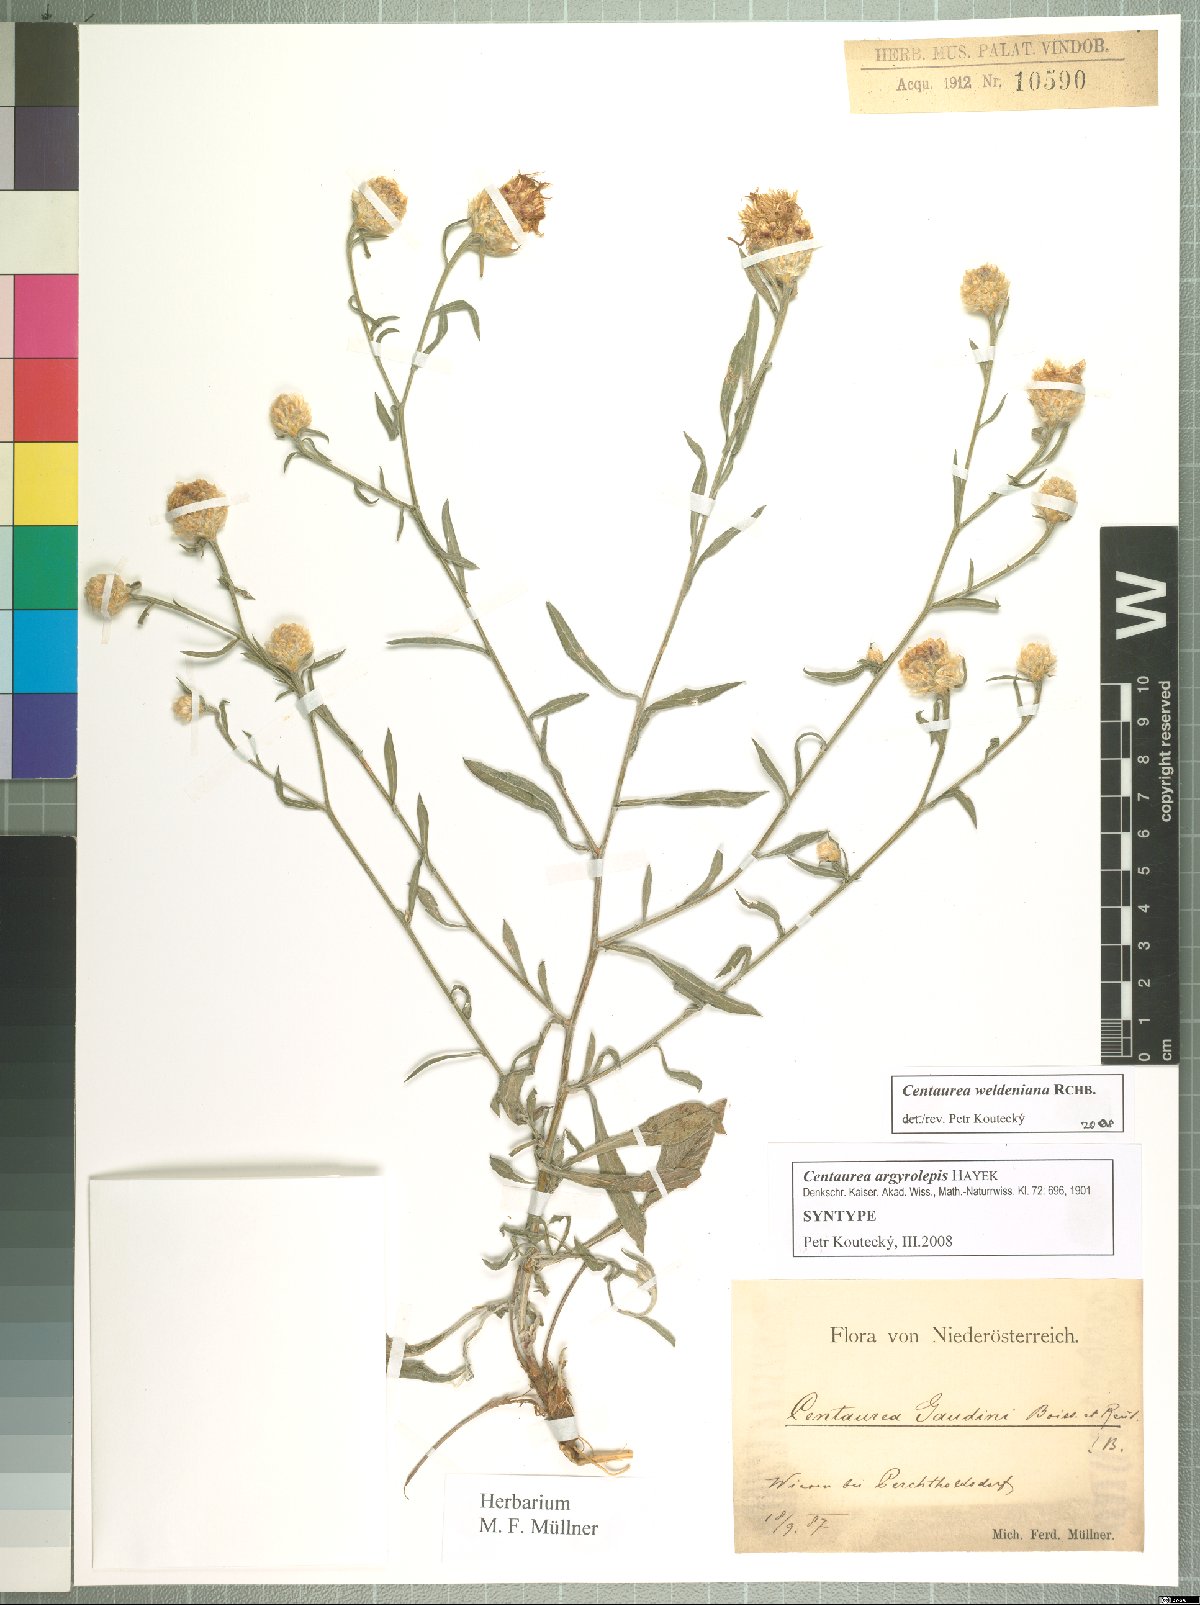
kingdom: Plantae
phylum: Tracheophyta
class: Magnoliopsida
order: Asterales
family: Asteraceae
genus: Centaurea
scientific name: Centaurea jacea
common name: Brown knapweed
